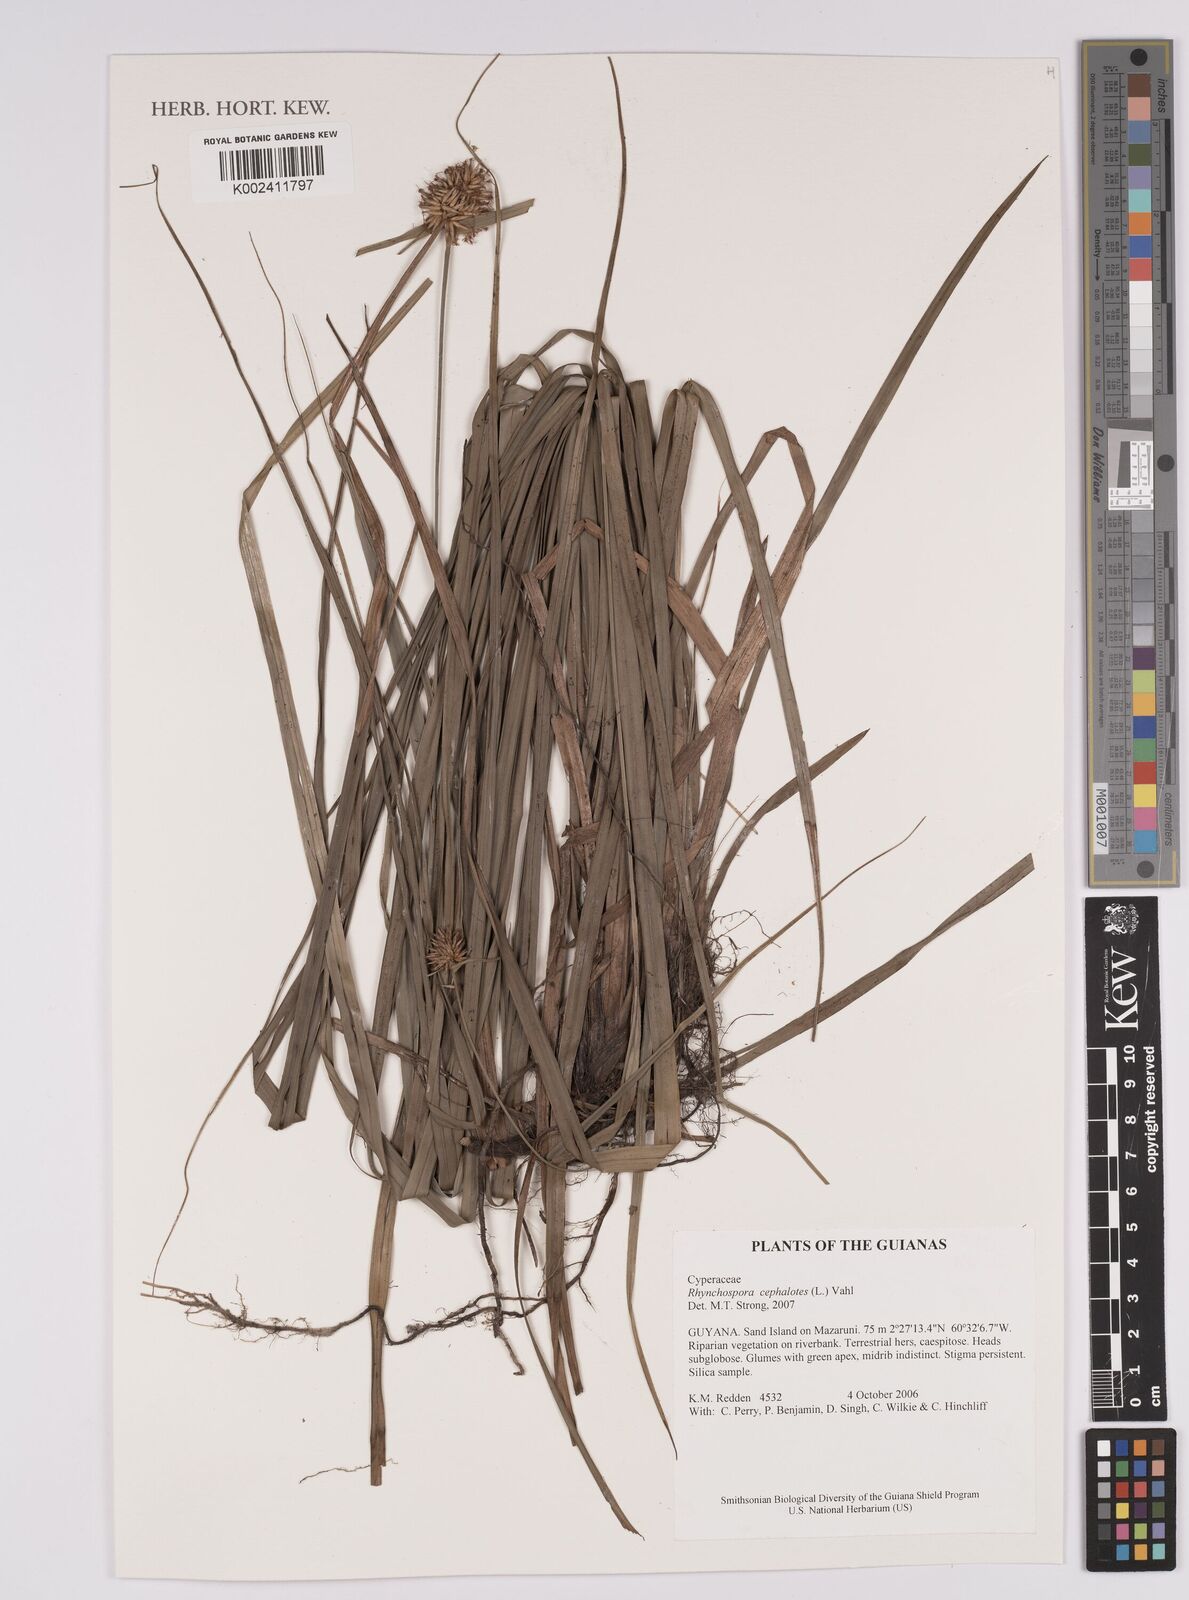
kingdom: Plantae
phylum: Tracheophyta
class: Liliopsida
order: Poales
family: Cyperaceae
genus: Rhynchospora
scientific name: Rhynchospora cephalotes
